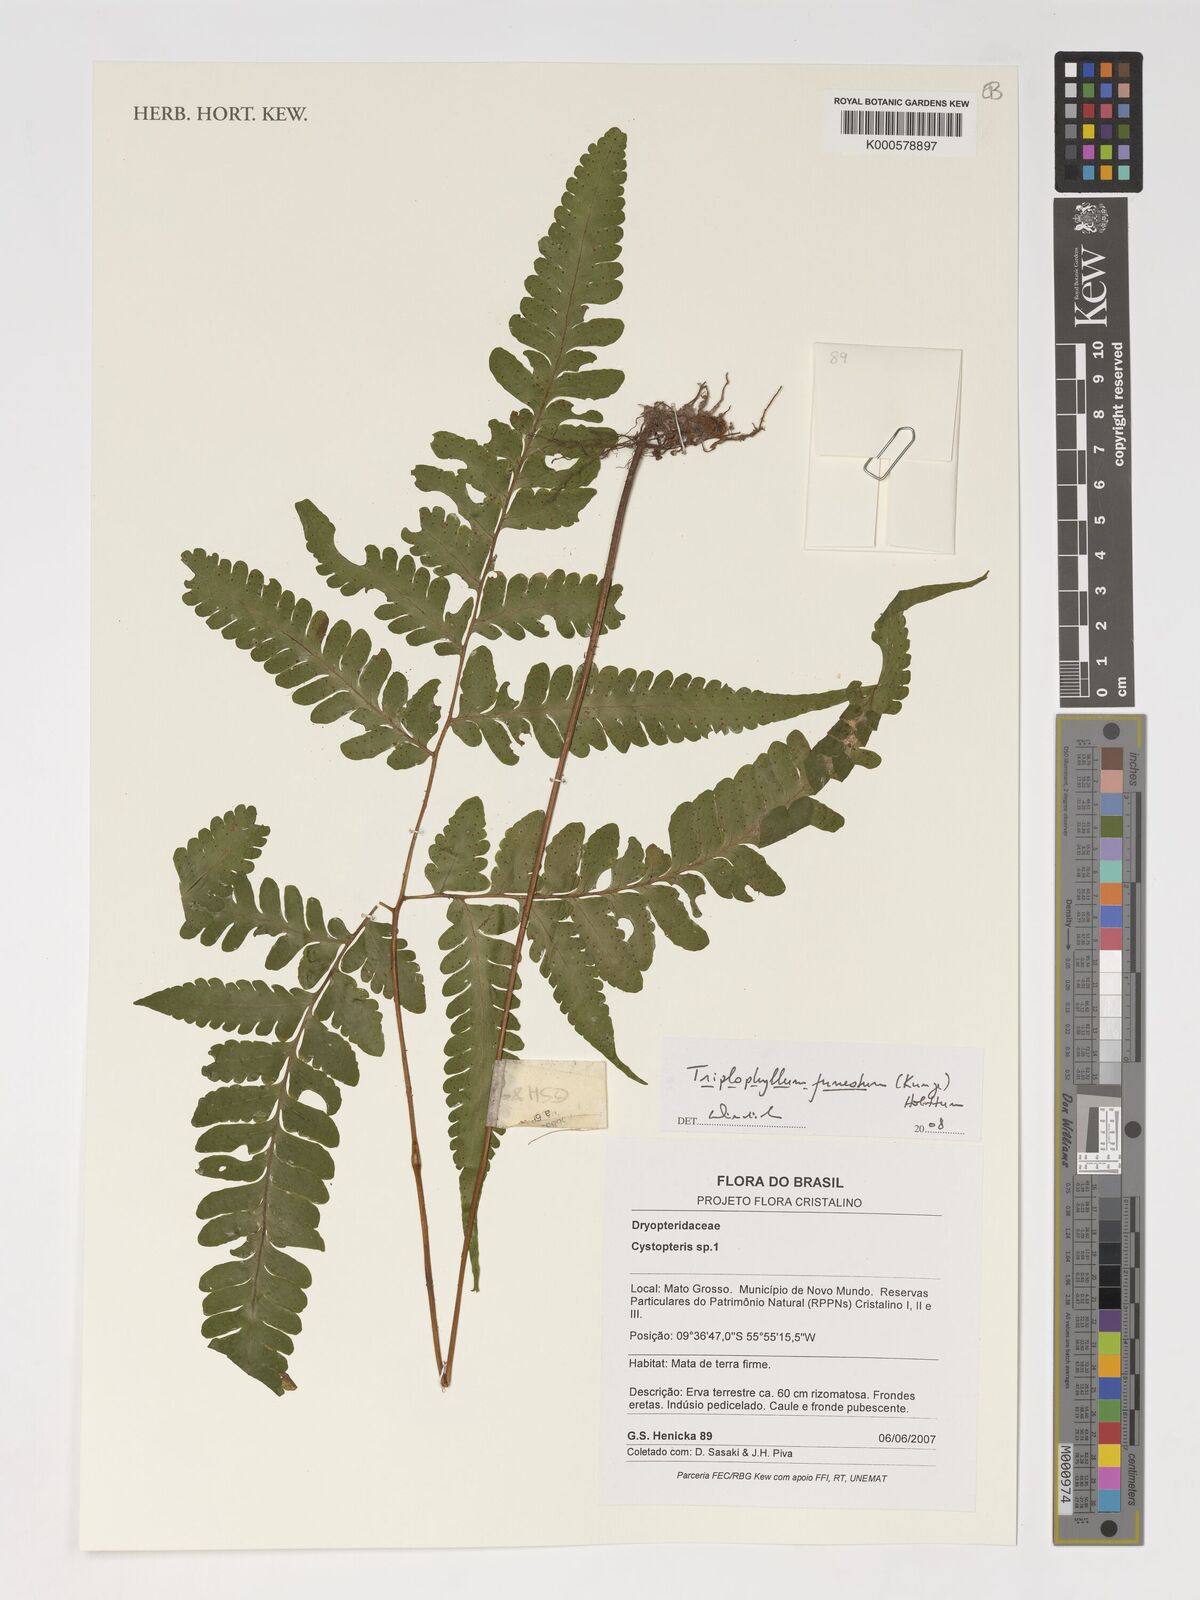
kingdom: Plantae
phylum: Tracheophyta
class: Polypodiopsida
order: Polypodiales
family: Tectariaceae
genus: Triplophyllum
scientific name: Triplophyllum funestum
